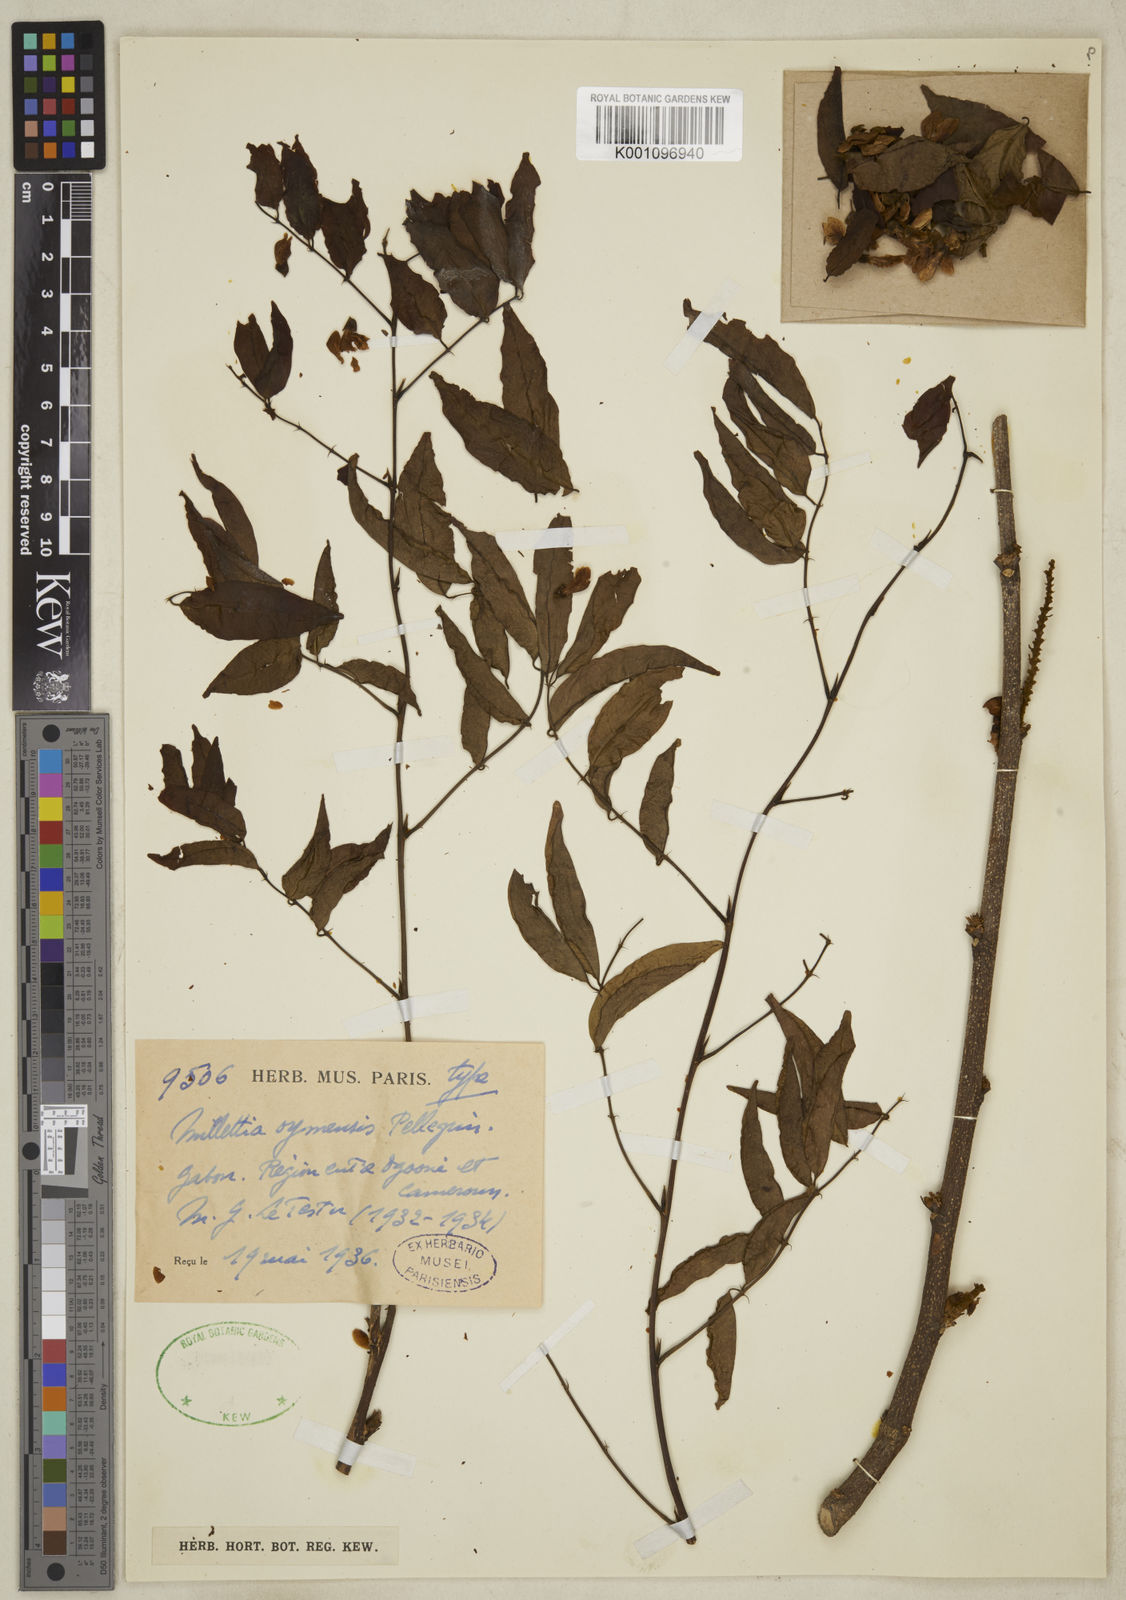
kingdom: Plantae
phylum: Tracheophyta
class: Magnoliopsida
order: Fabales
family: Fabaceae
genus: Millettia
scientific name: Millettia oyemensis
